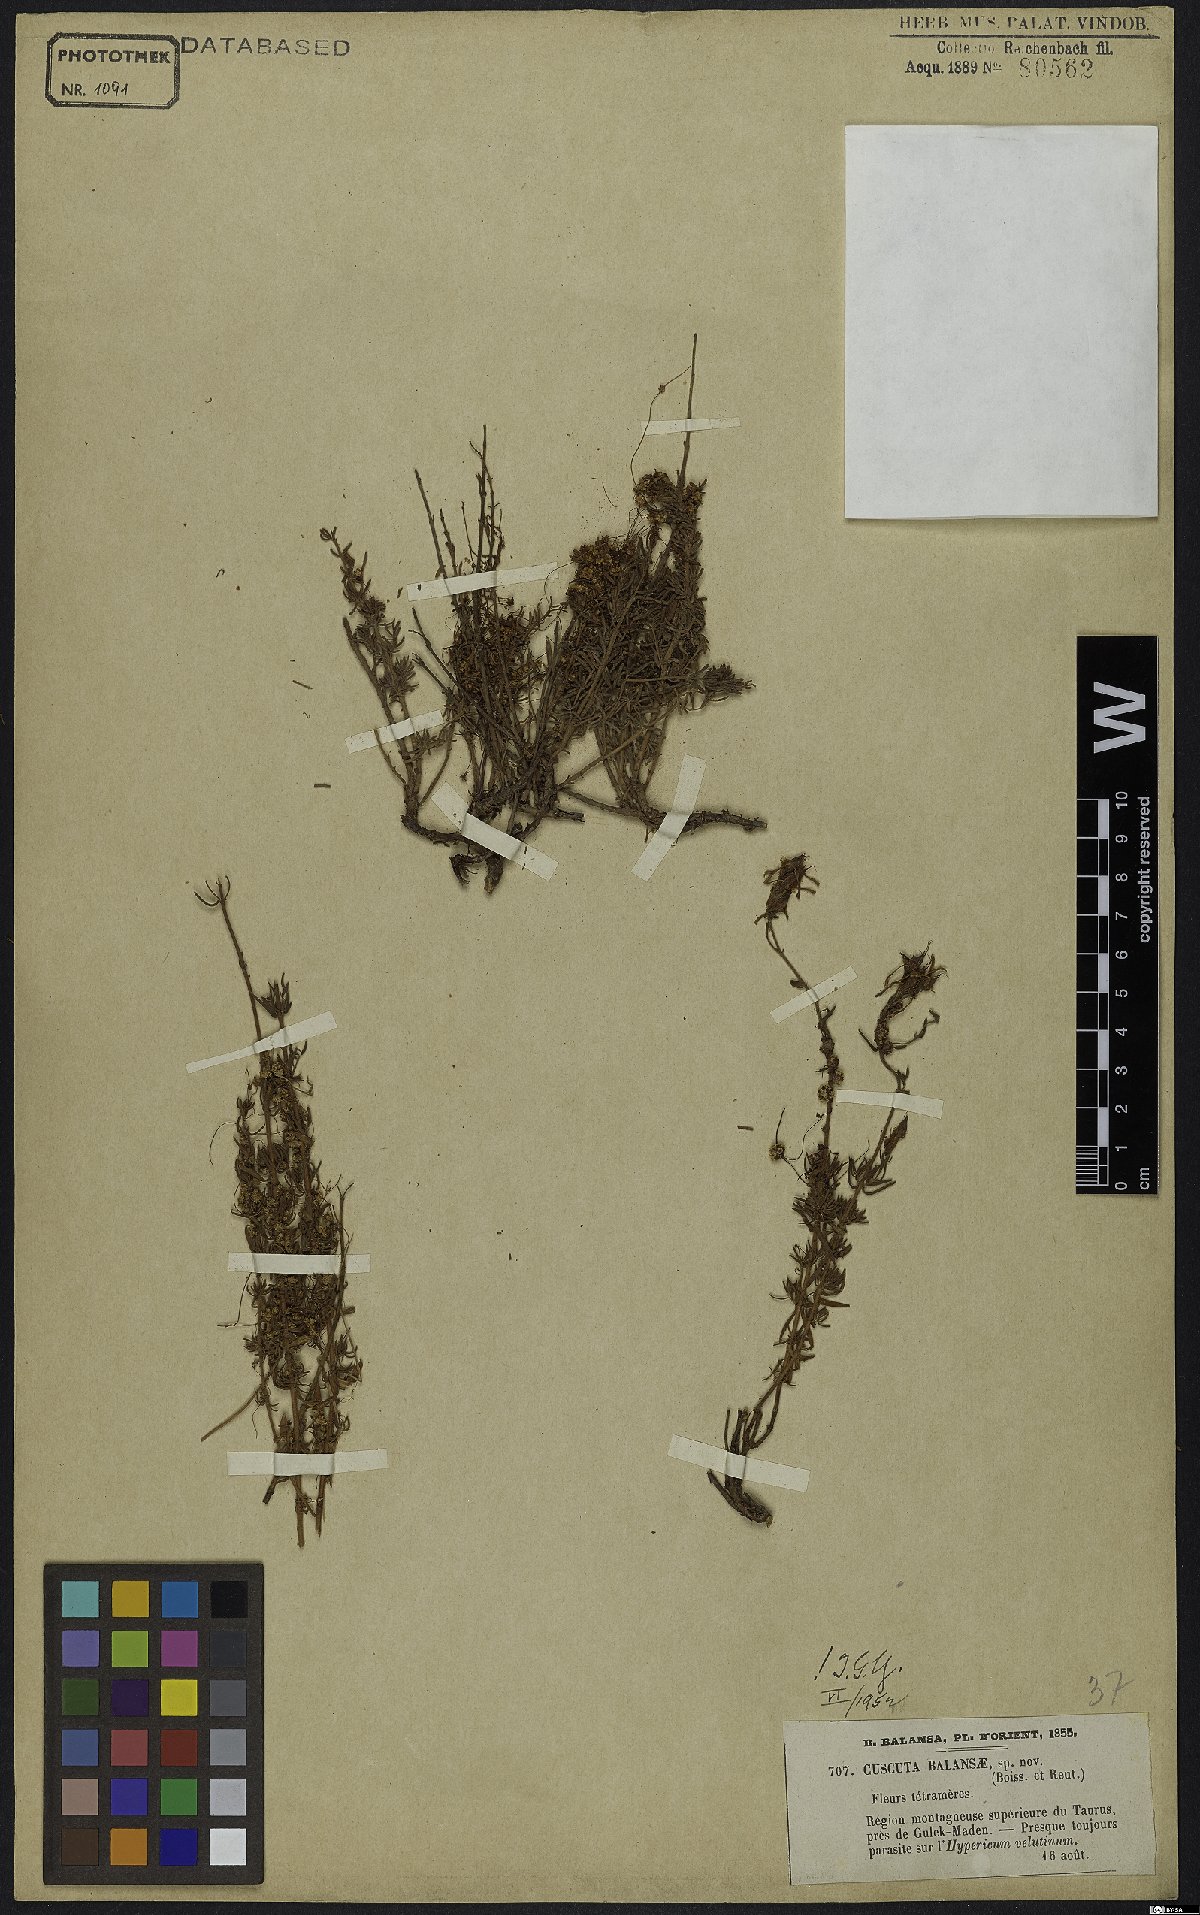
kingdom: Plantae
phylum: Tracheophyta
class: Magnoliopsida
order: Solanales
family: Convolvulaceae
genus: Cuscuta
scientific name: Cuscuta balansae
